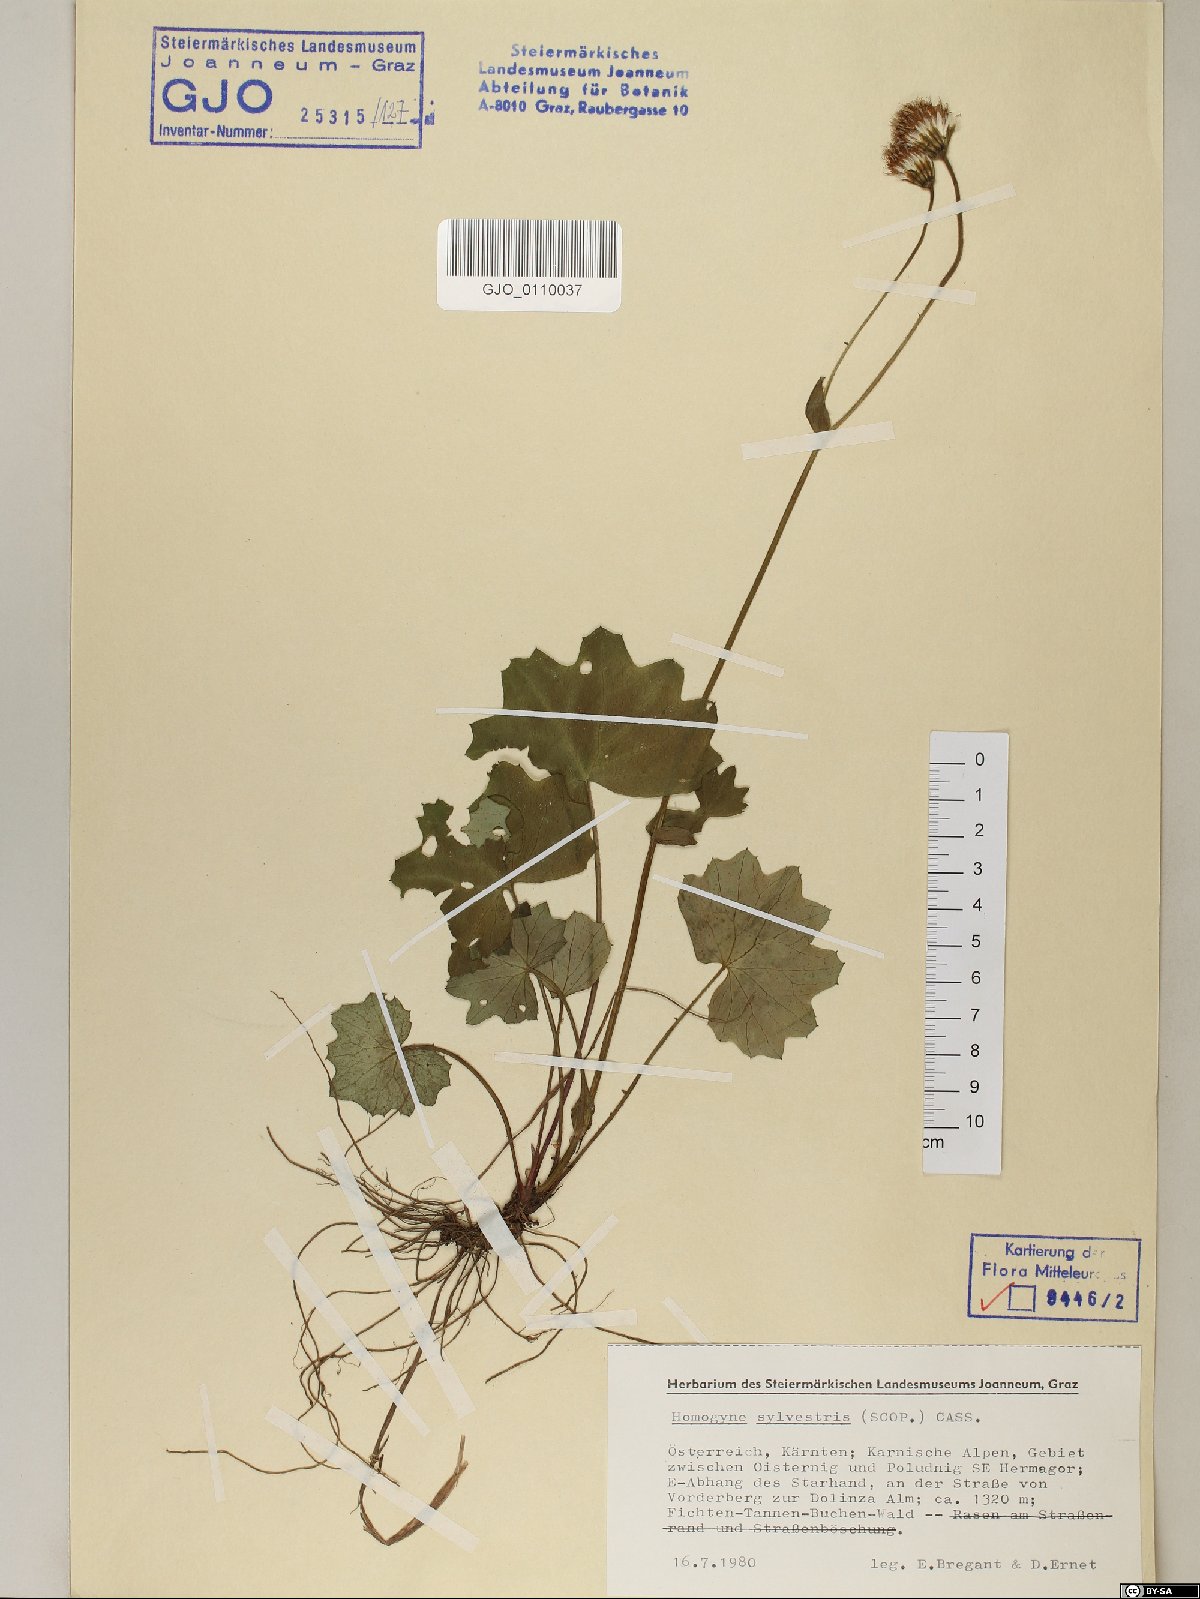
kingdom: Plantae
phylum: Tracheophyta
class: Magnoliopsida
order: Asterales
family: Asteraceae
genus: Homogyne
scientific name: Homogyne sylvestris
